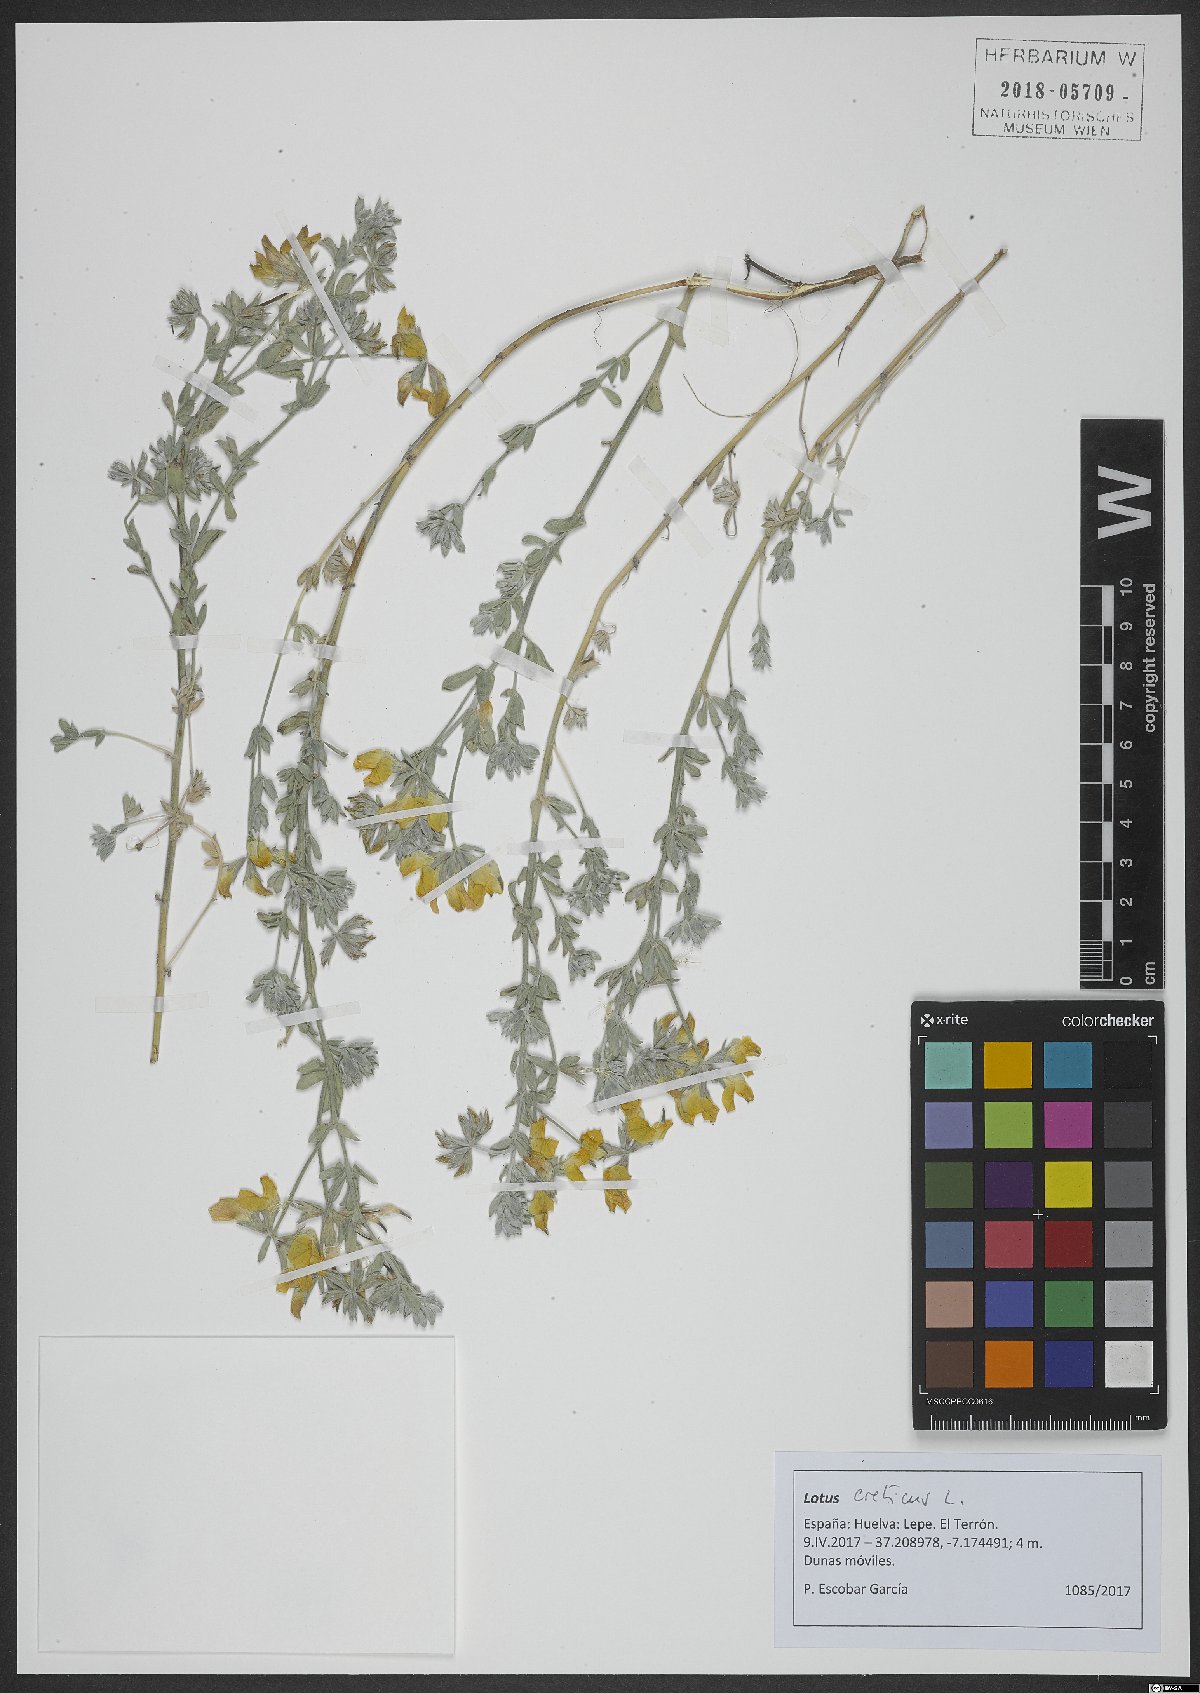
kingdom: Plantae
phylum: Tracheophyta
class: Magnoliopsida
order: Fabales
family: Fabaceae
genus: Lotus
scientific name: Lotus creticus
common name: Cretan bird's-foot trefoil
